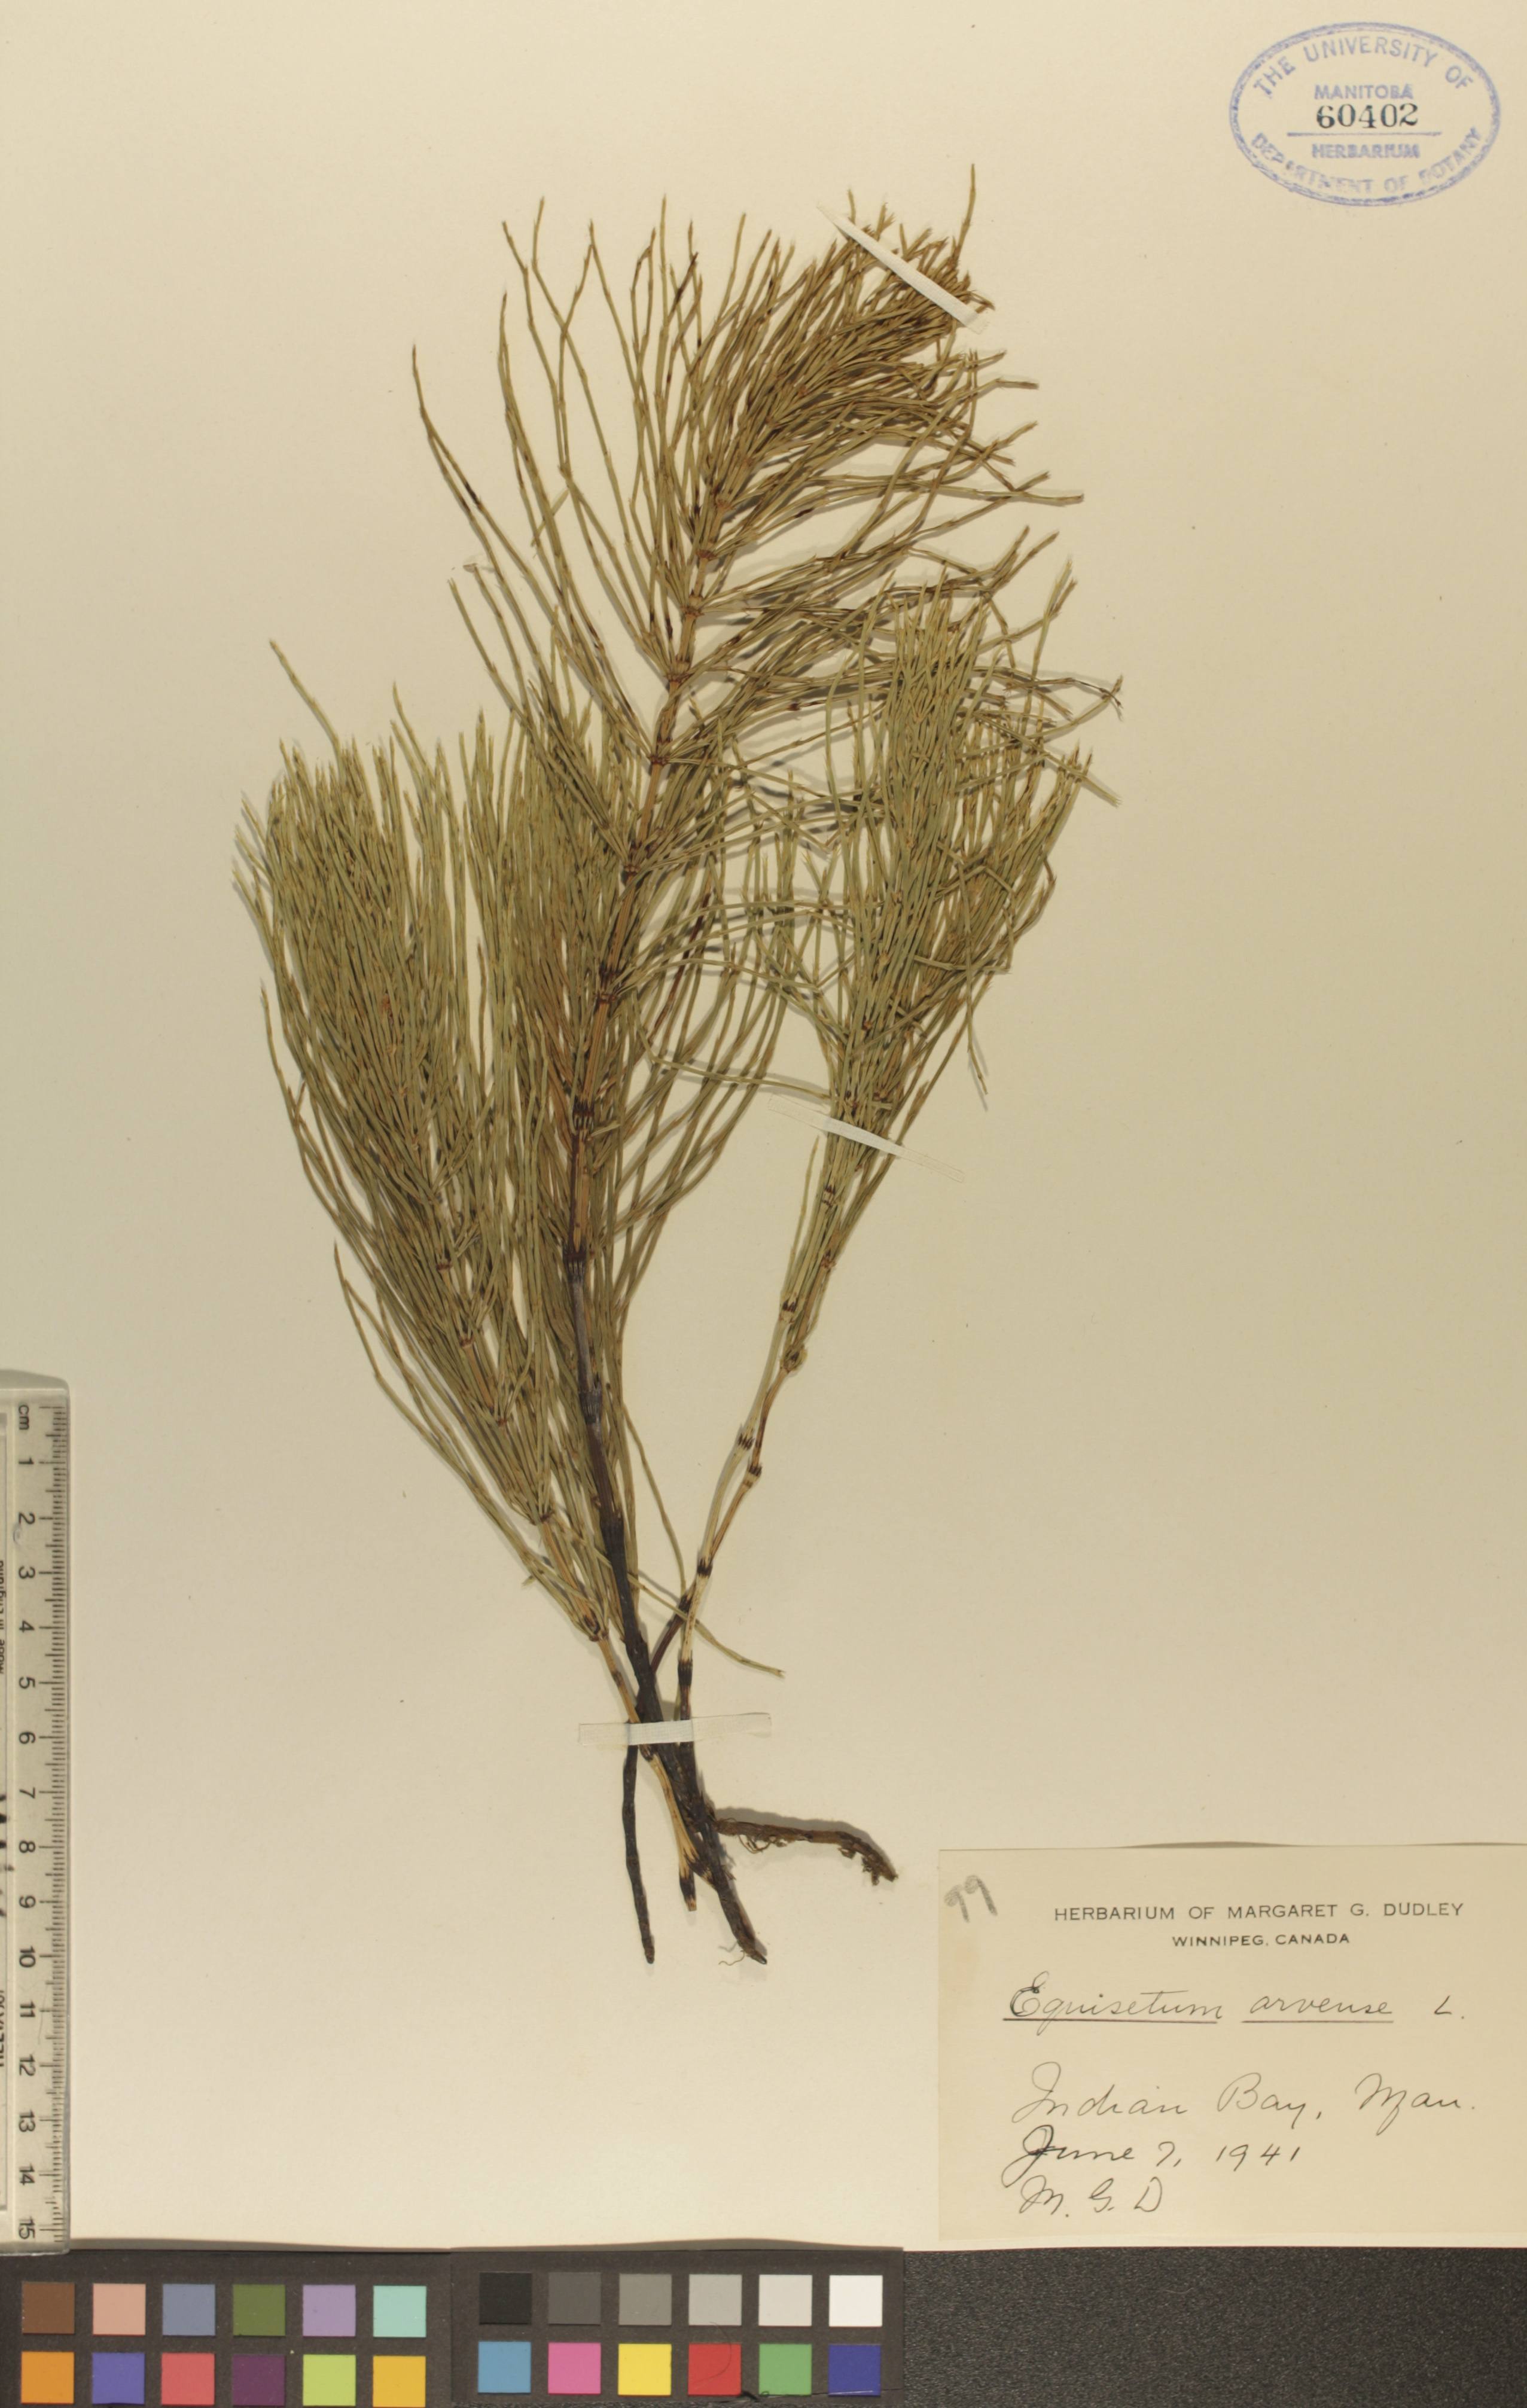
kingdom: Plantae
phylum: Tracheophyta
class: Polypodiopsida
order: Equisetales
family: Equisetaceae
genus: Equisetum
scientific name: Equisetum arvense
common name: Field horsetail
